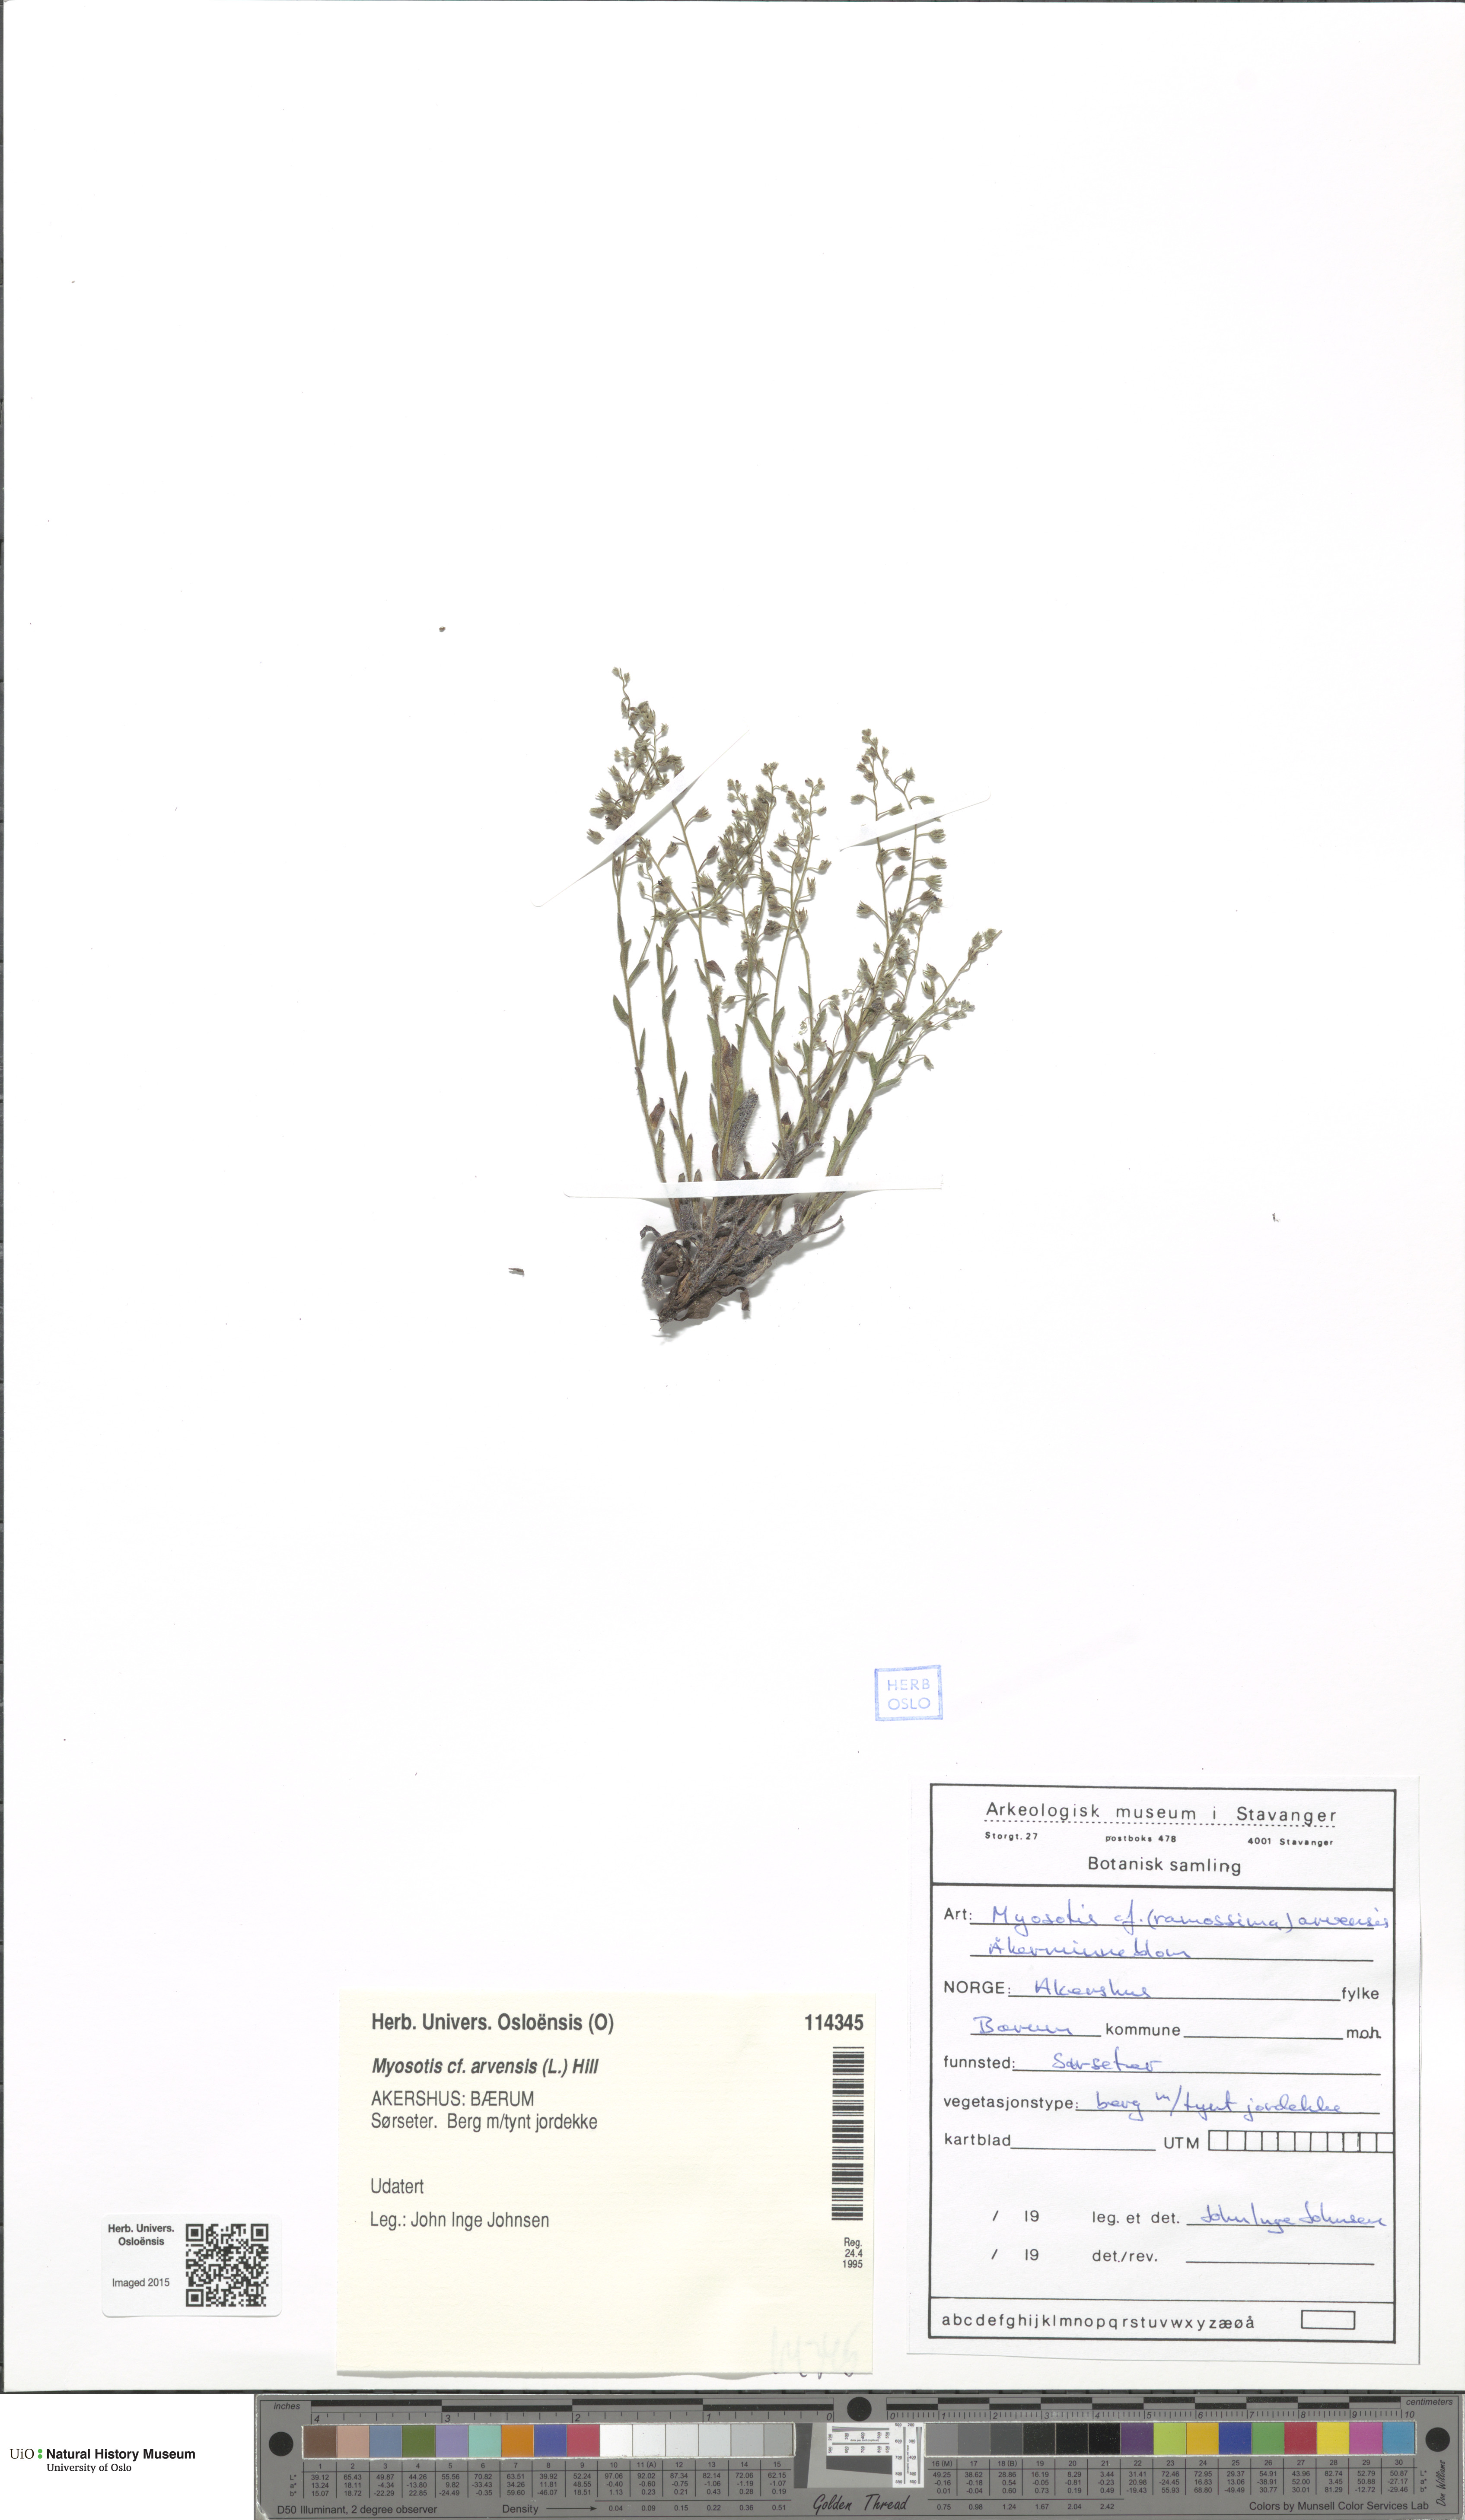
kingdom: Plantae
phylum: Tracheophyta
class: Magnoliopsida
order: Boraginales
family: Boraginaceae
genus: Myosotis
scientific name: Myosotis arvensis
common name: Field forget-me-not
